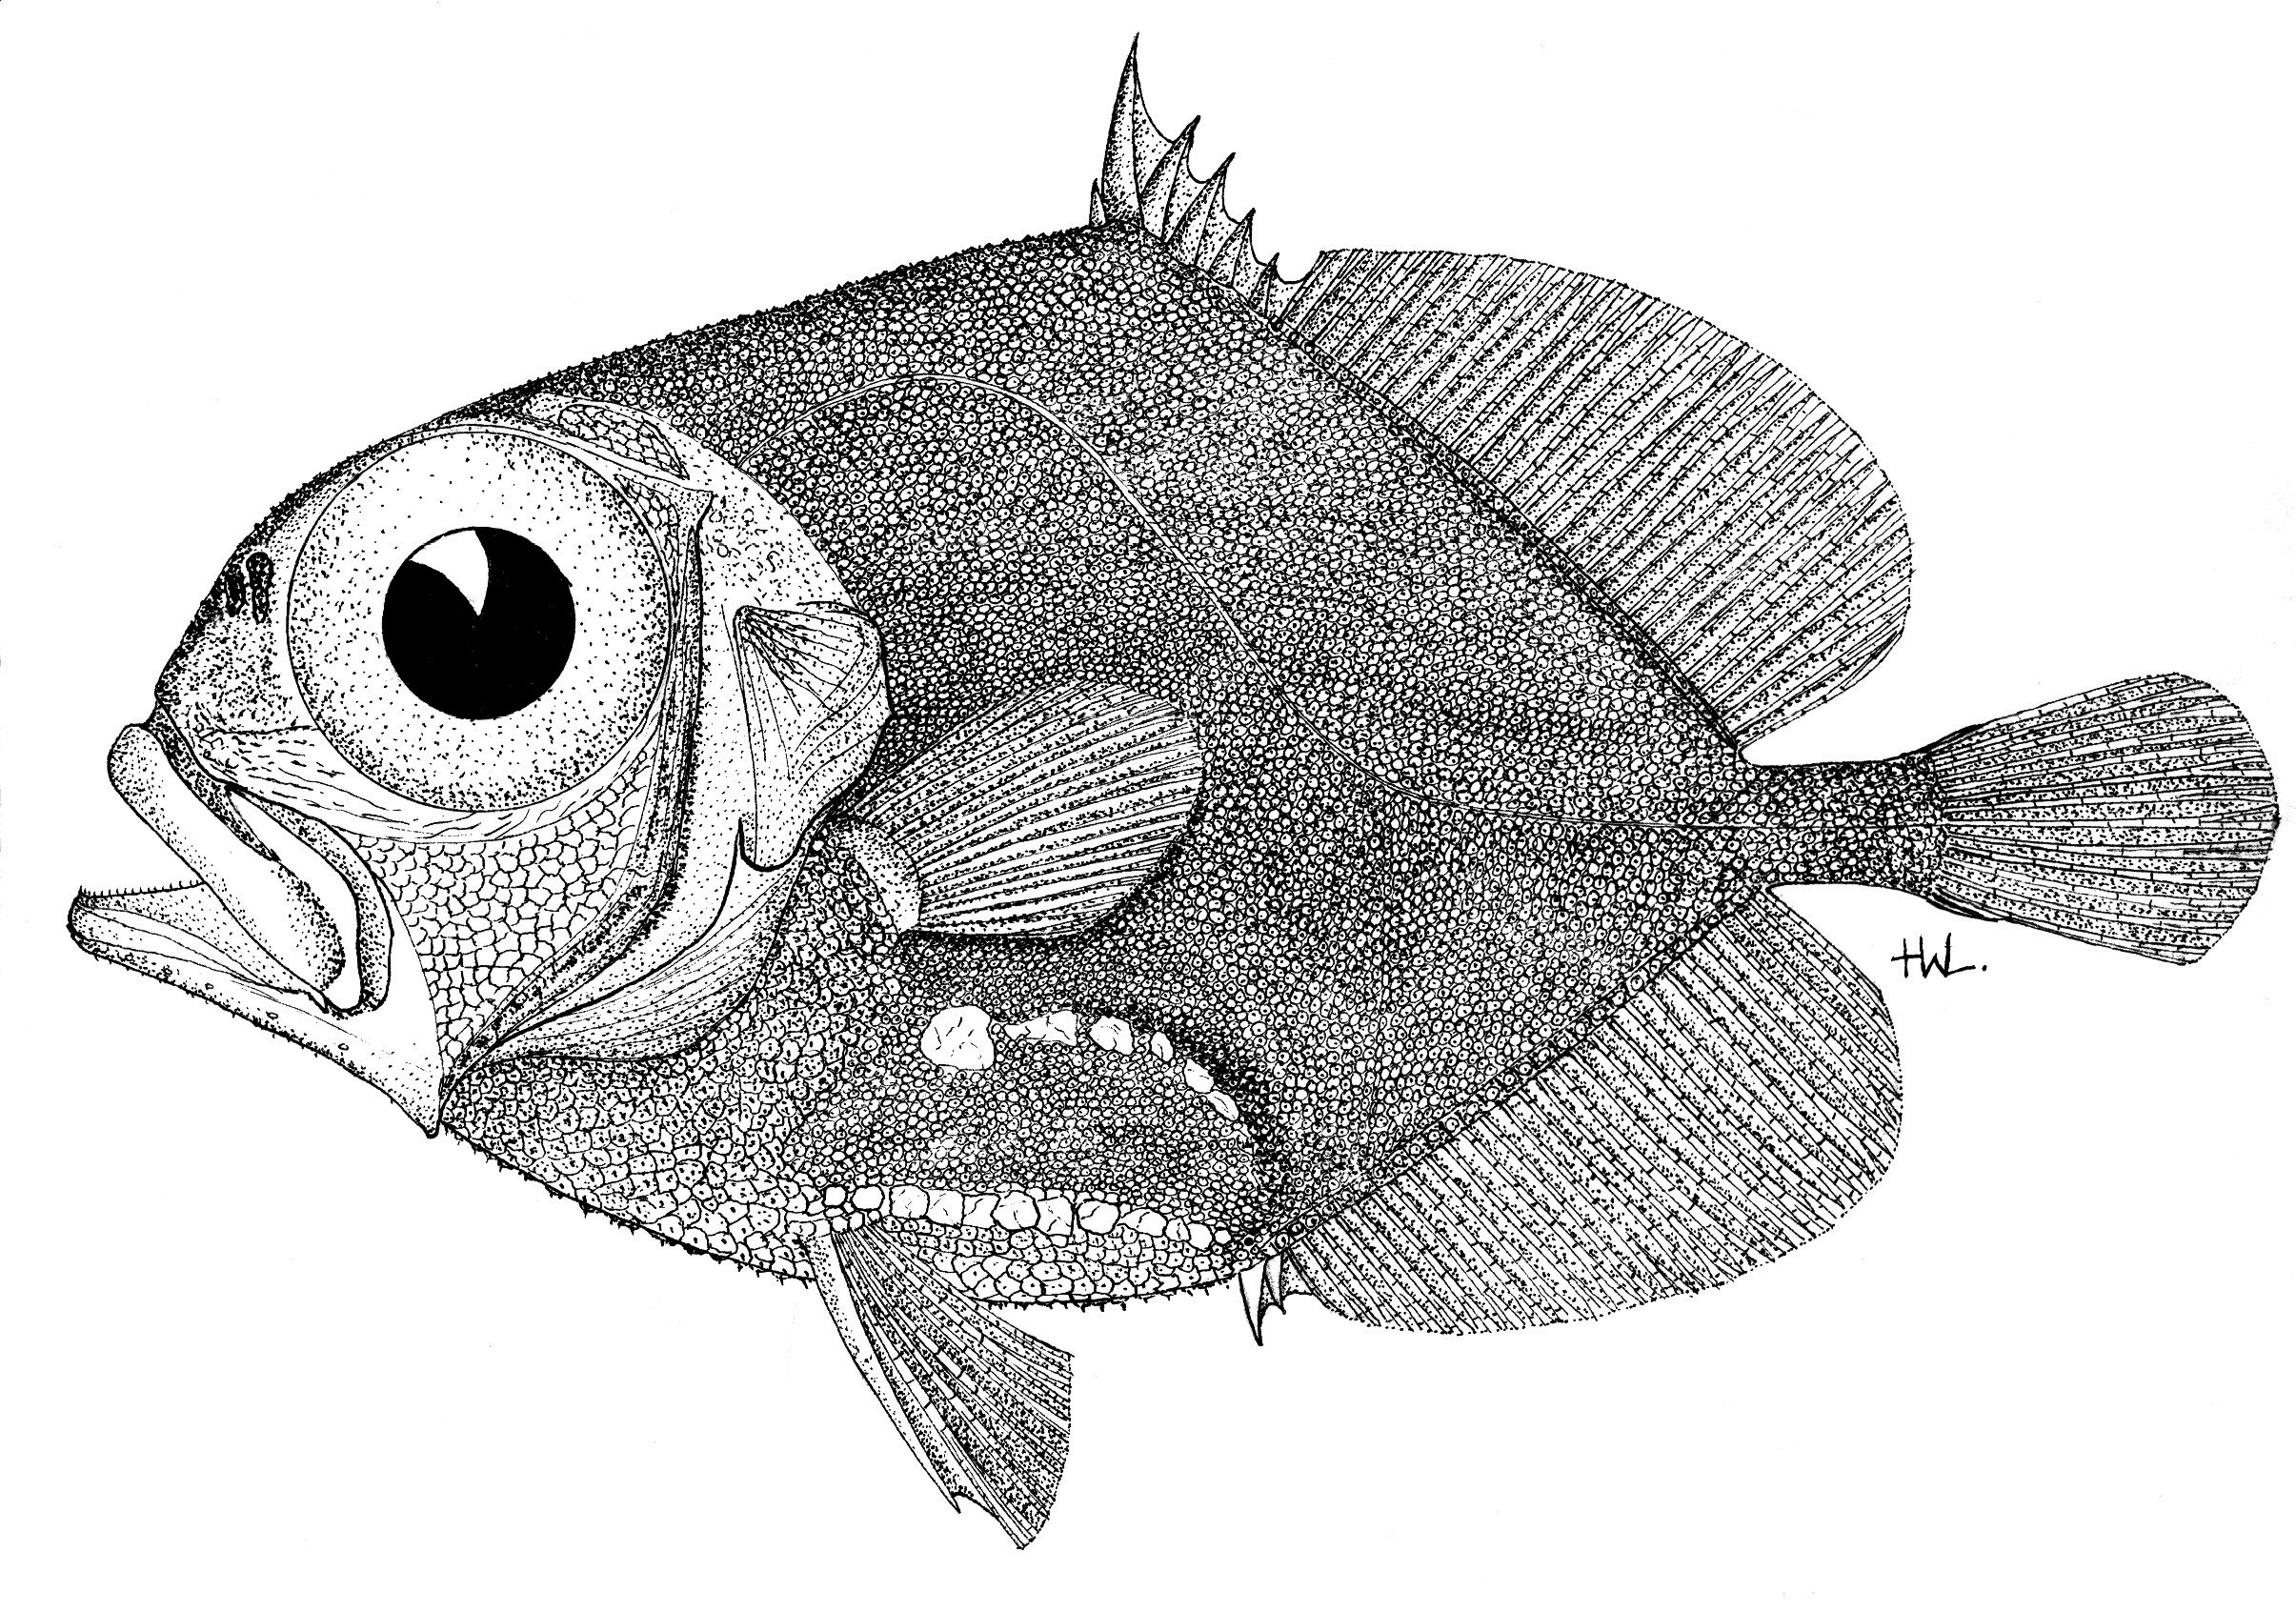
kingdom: Animalia
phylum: Chordata
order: Zeiformes
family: Oreosomatidae
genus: Allocyttus
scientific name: Allocyttus verrucosus
